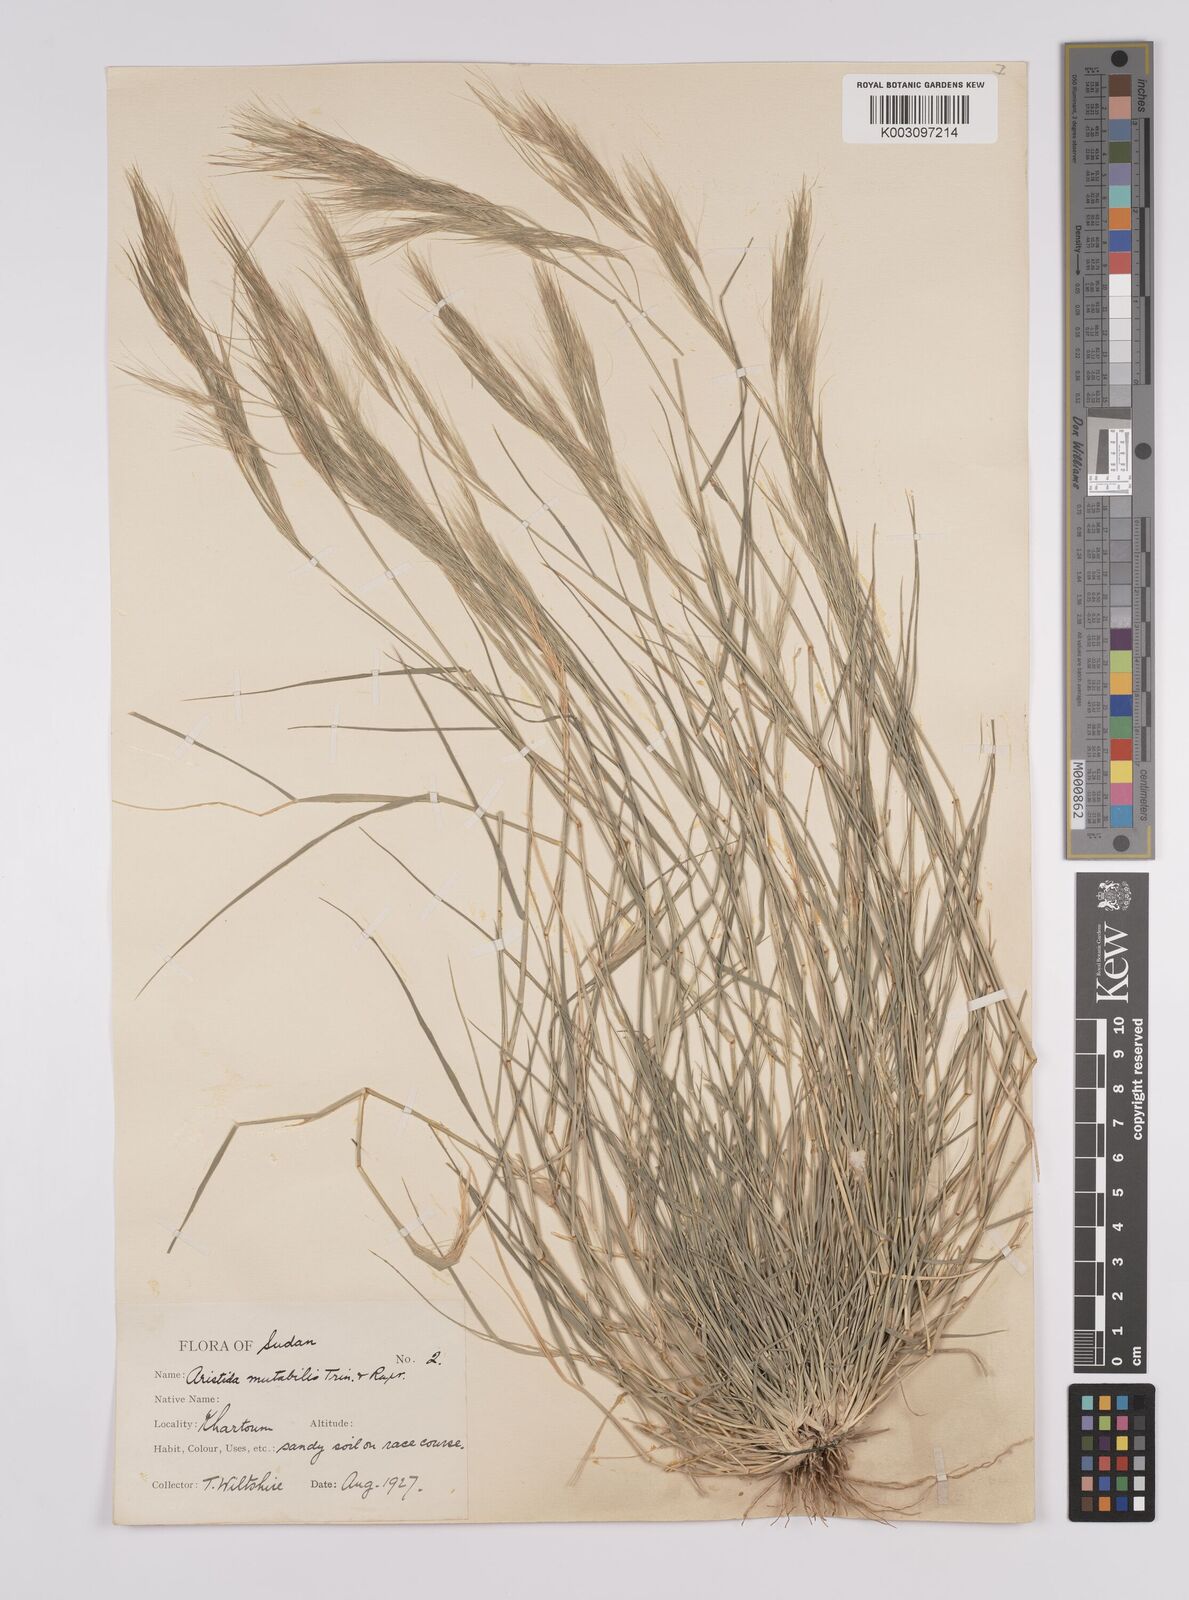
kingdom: Plantae
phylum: Tracheophyta
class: Liliopsida
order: Poales
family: Poaceae
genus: Aristida
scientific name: Aristida mutabilis
